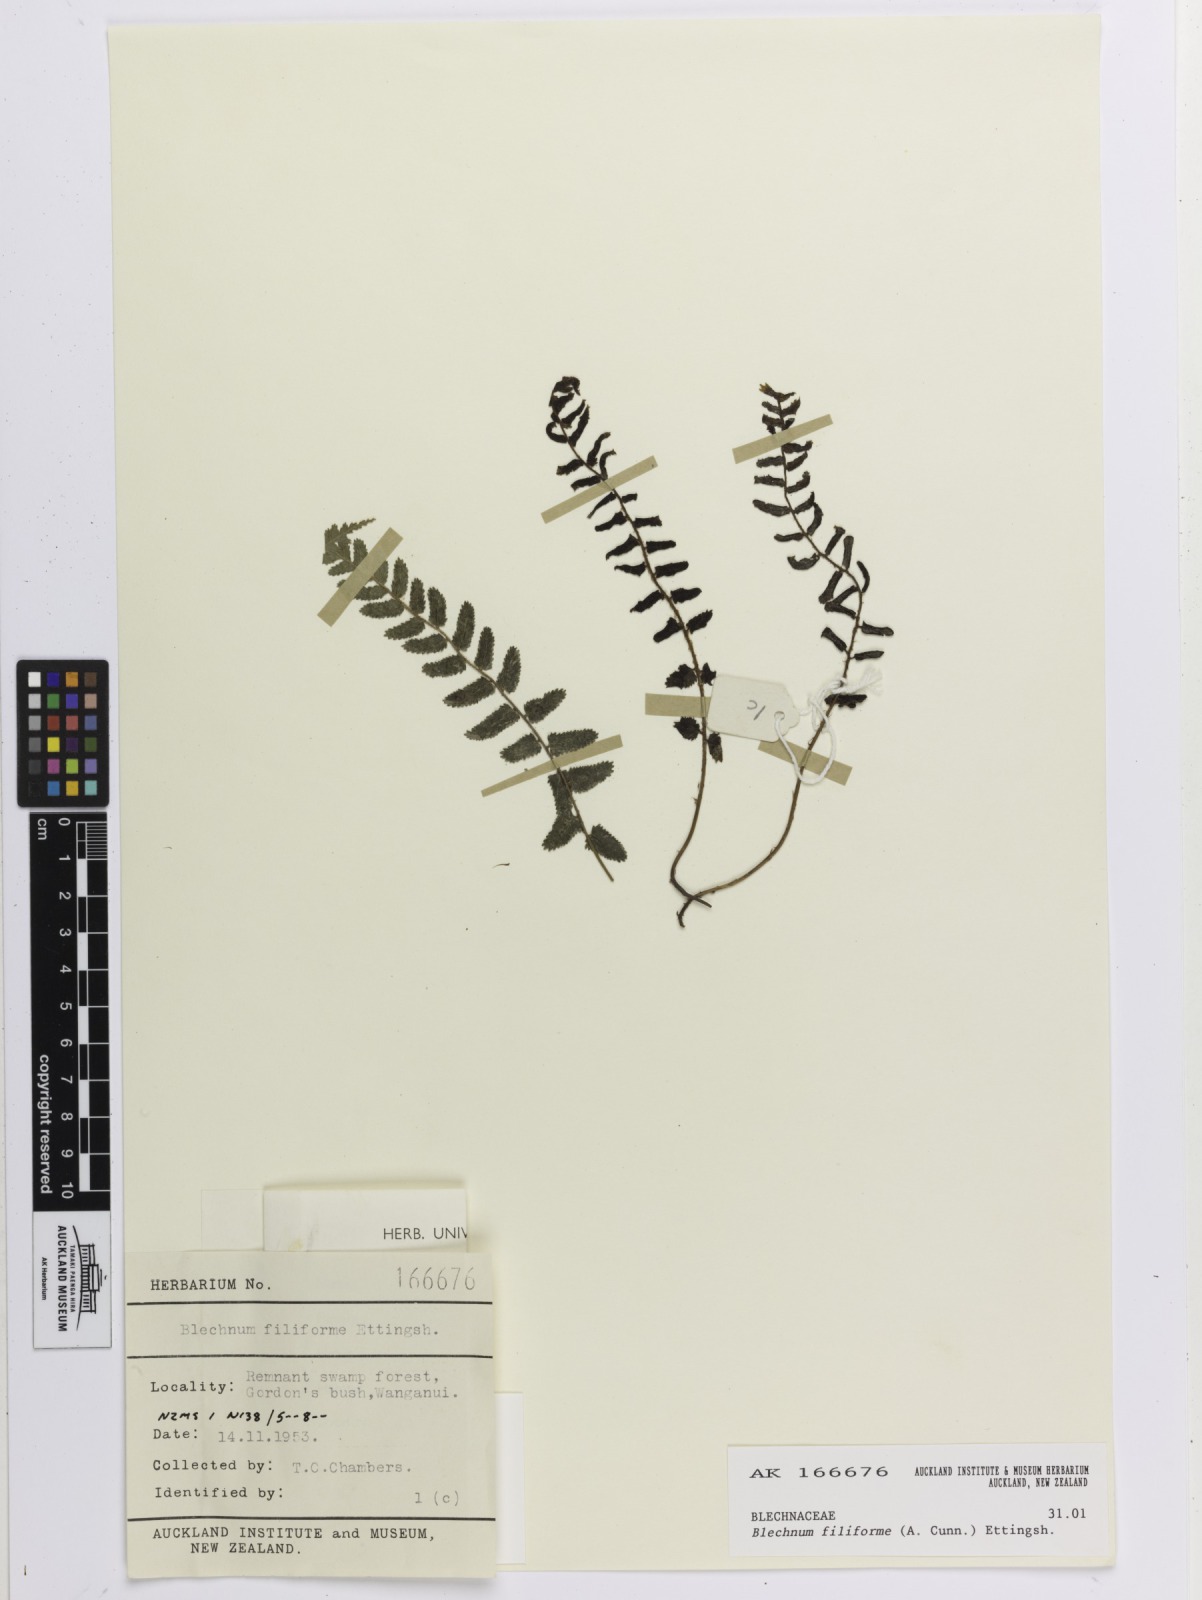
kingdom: Plantae
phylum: Tracheophyta
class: Polypodiopsida
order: Polypodiales
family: Blechnaceae
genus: Icarus
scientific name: Icarus filiformis
